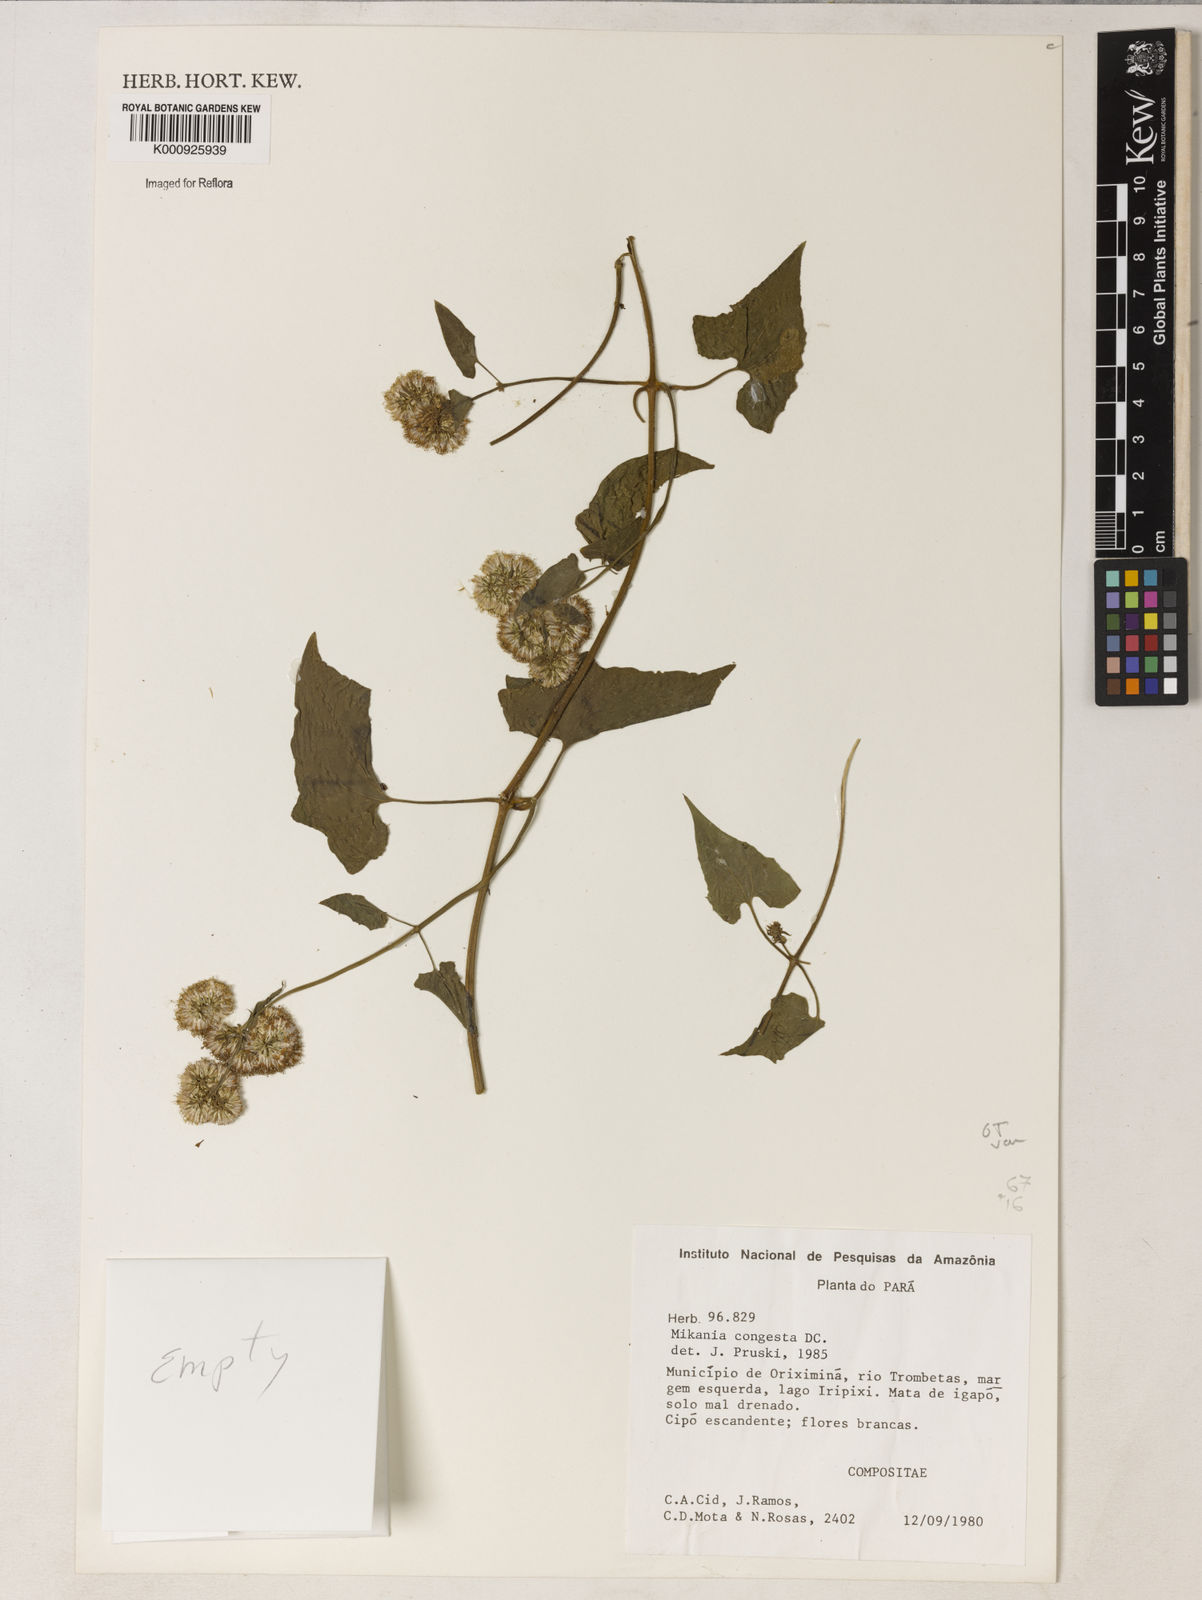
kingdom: Plantae
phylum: Tracheophyta
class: Magnoliopsida
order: Asterales
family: Asteraceae
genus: Mikania
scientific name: Mikania congesta
